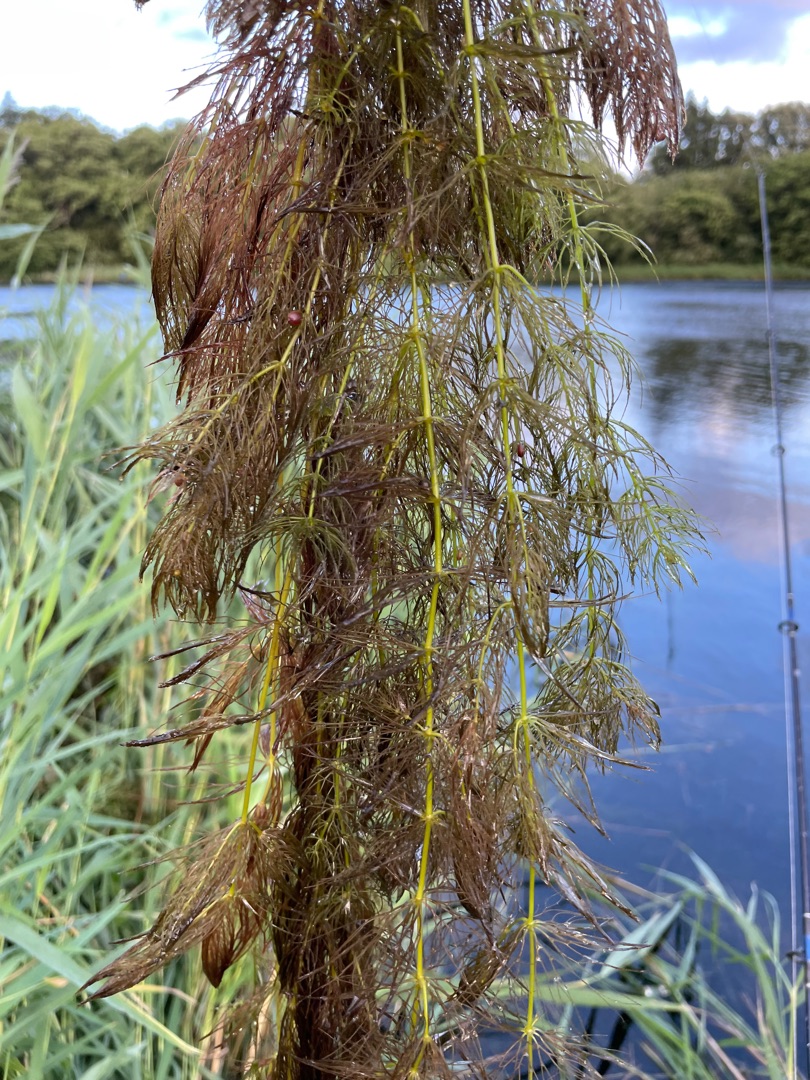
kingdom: Plantae
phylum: Tracheophyta
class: Magnoliopsida
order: Ceratophyllales
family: Ceratophyllaceae
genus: Ceratophyllum
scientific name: Ceratophyllum submersum
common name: Tornløs hornblad
